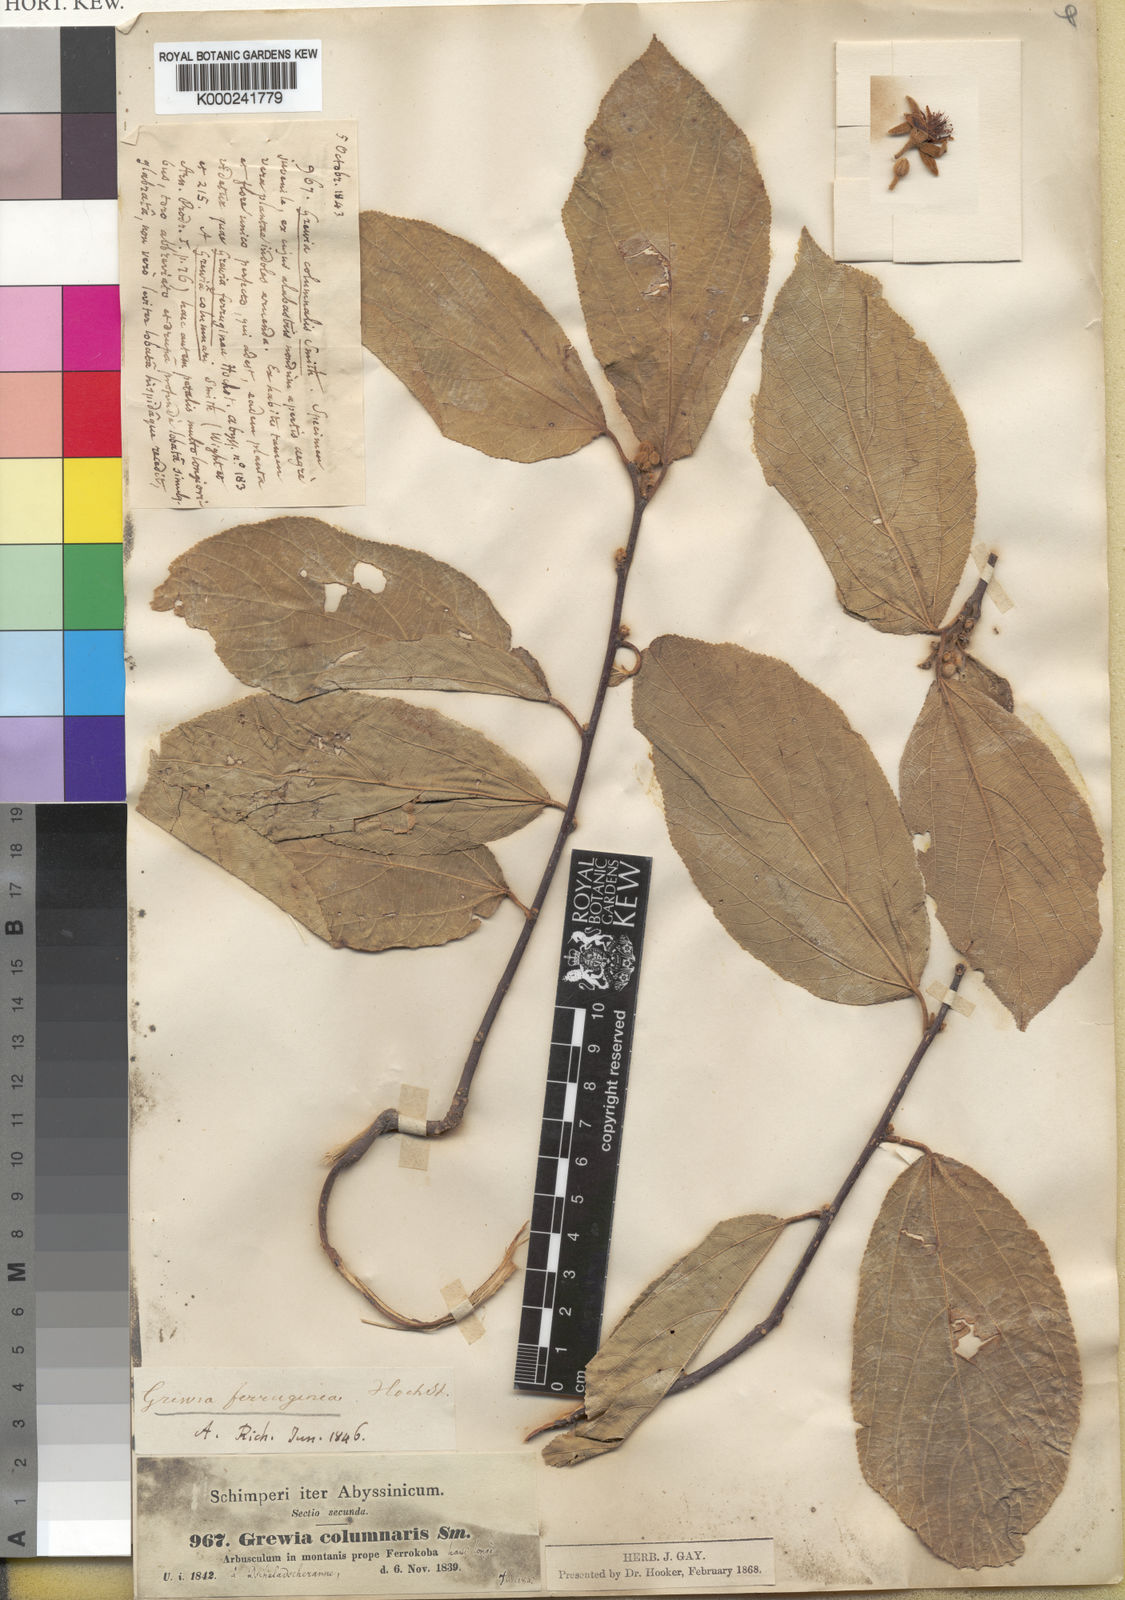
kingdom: Plantae
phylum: Tracheophyta
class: Magnoliopsida
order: Malvales
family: Malvaceae
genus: Grewia
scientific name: Grewia ferruginea
